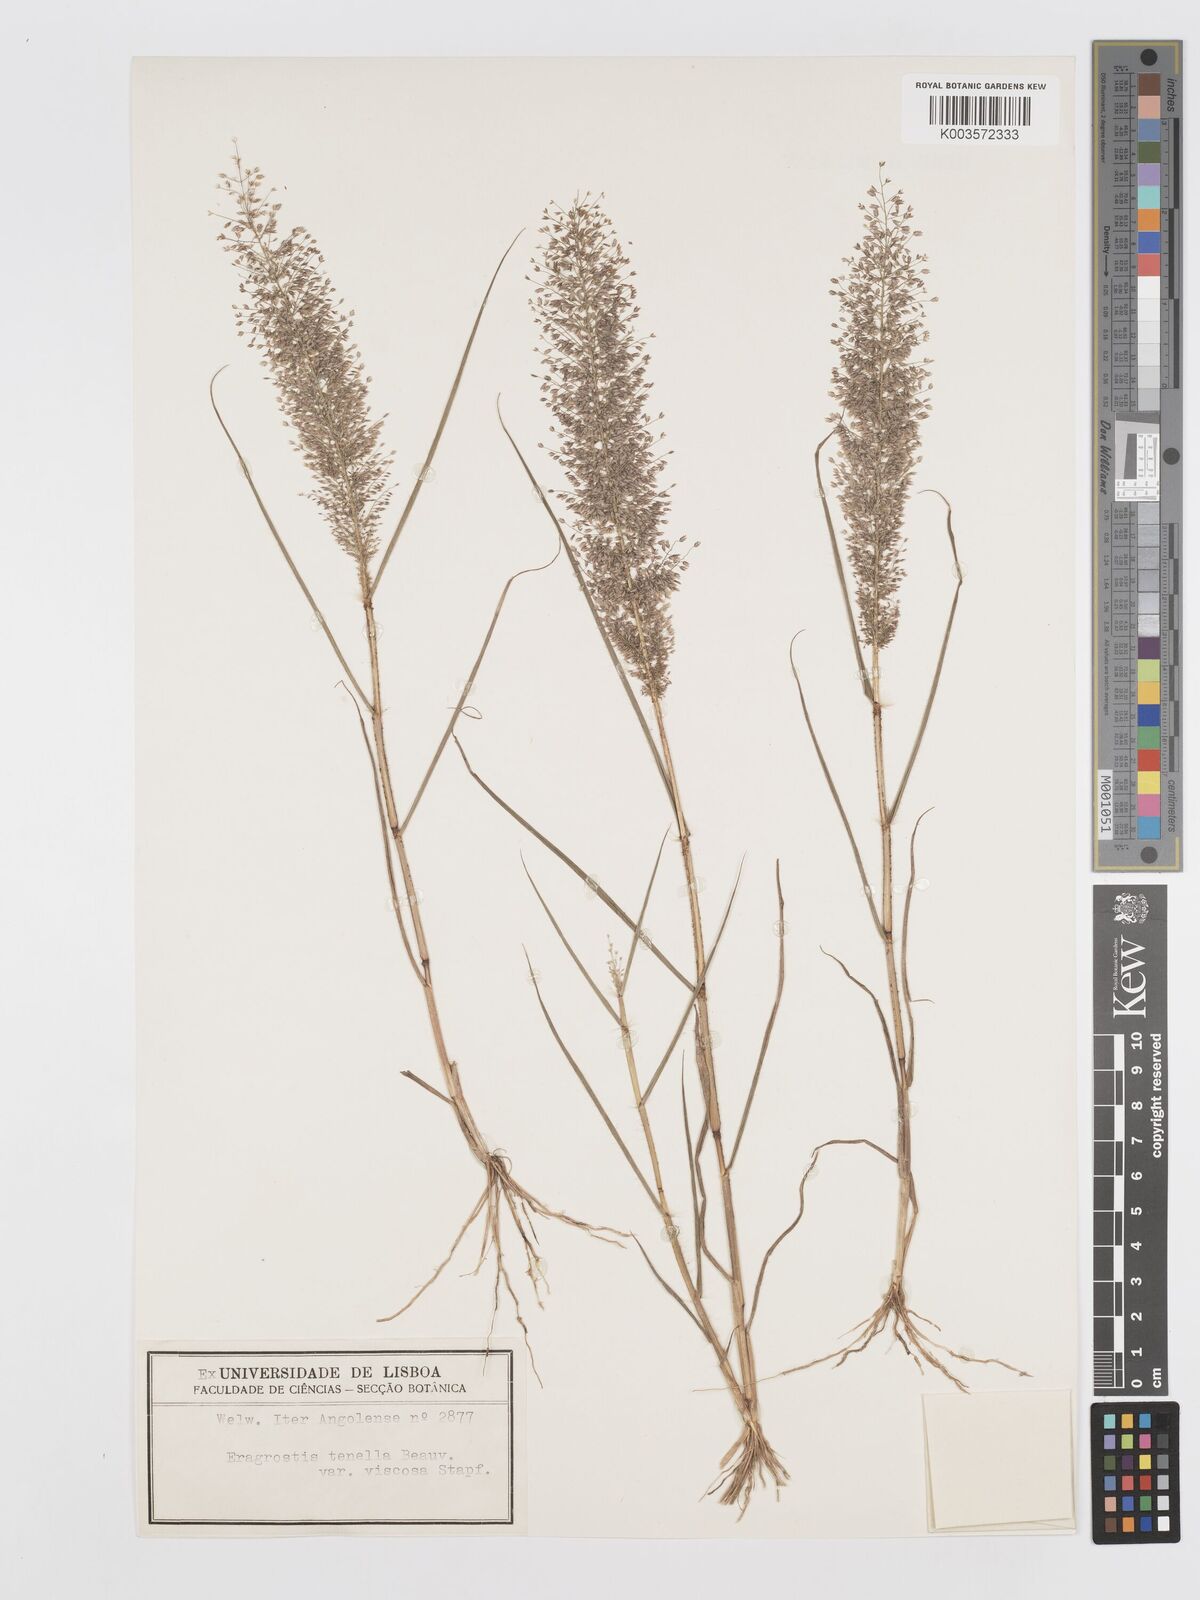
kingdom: Plantae
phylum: Tracheophyta
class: Liliopsida
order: Poales
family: Poaceae
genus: Eragrostis
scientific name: Eragrostis
